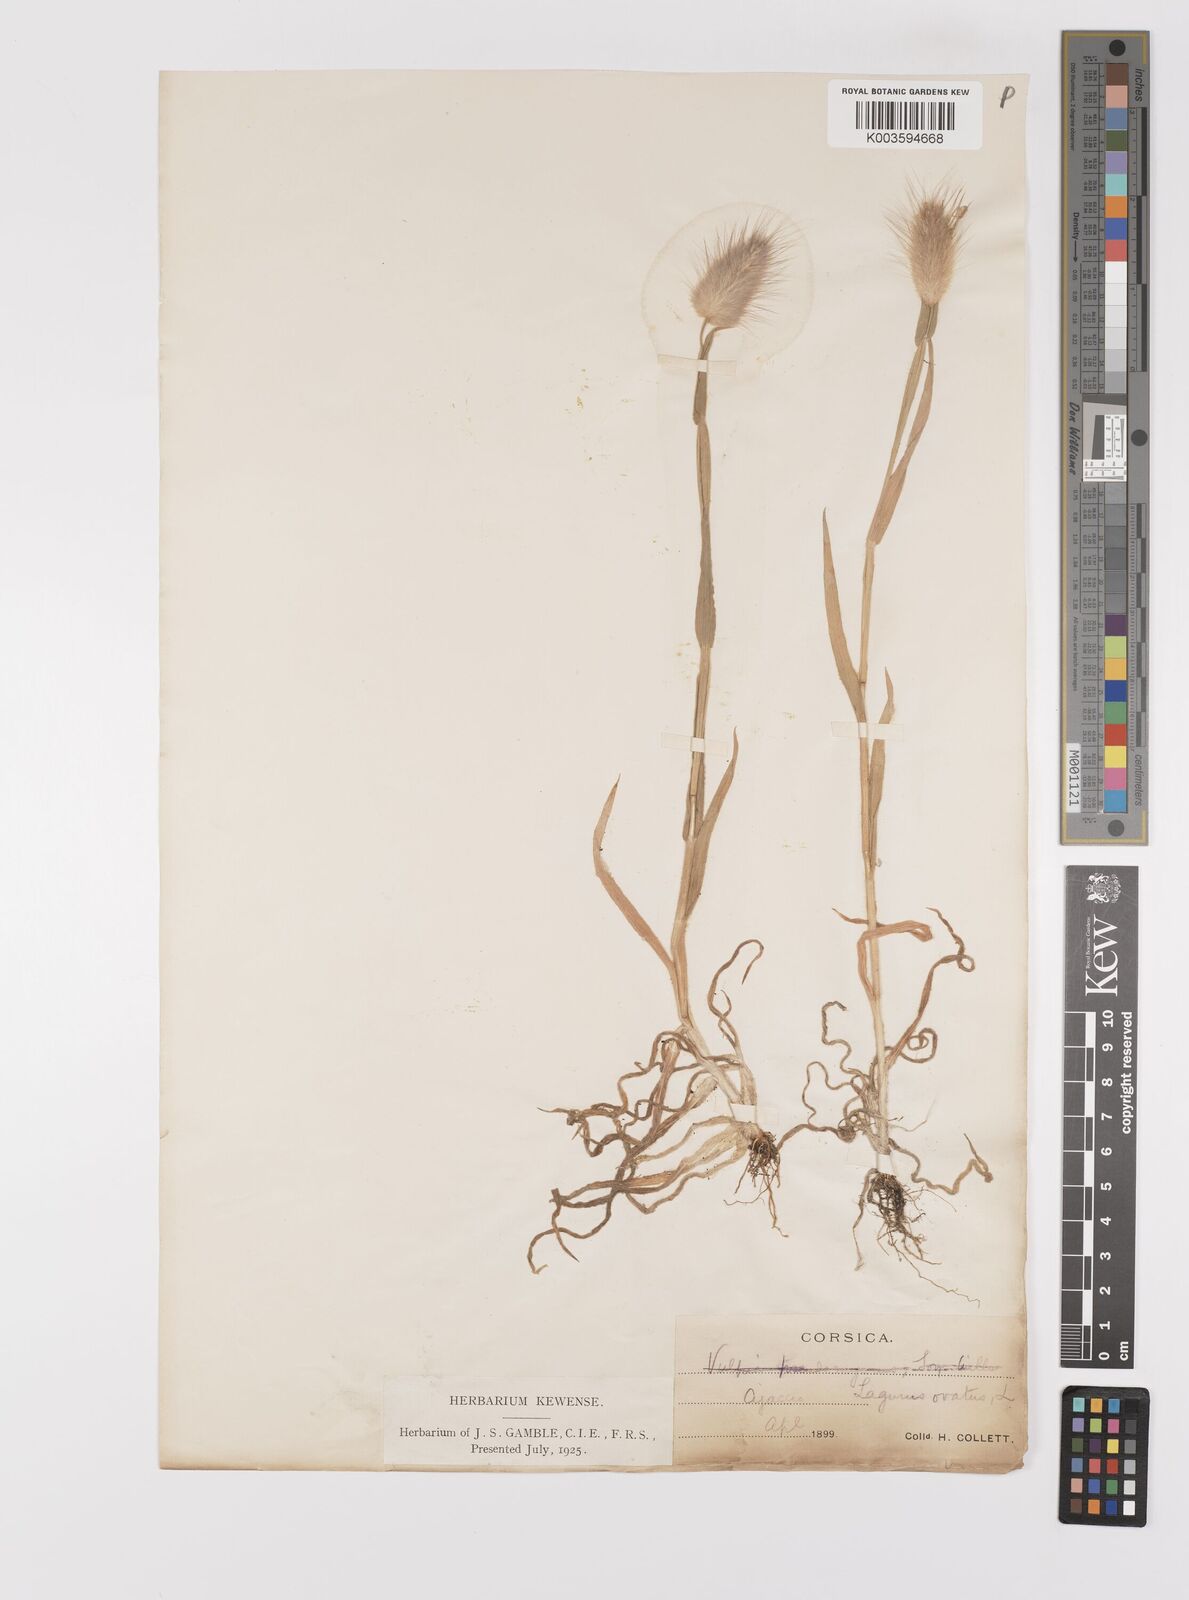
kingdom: Plantae
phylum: Tracheophyta
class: Liliopsida
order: Poales
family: Poaceae
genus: Lagurus
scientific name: Lagurus ovatus
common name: Hare's-tail
